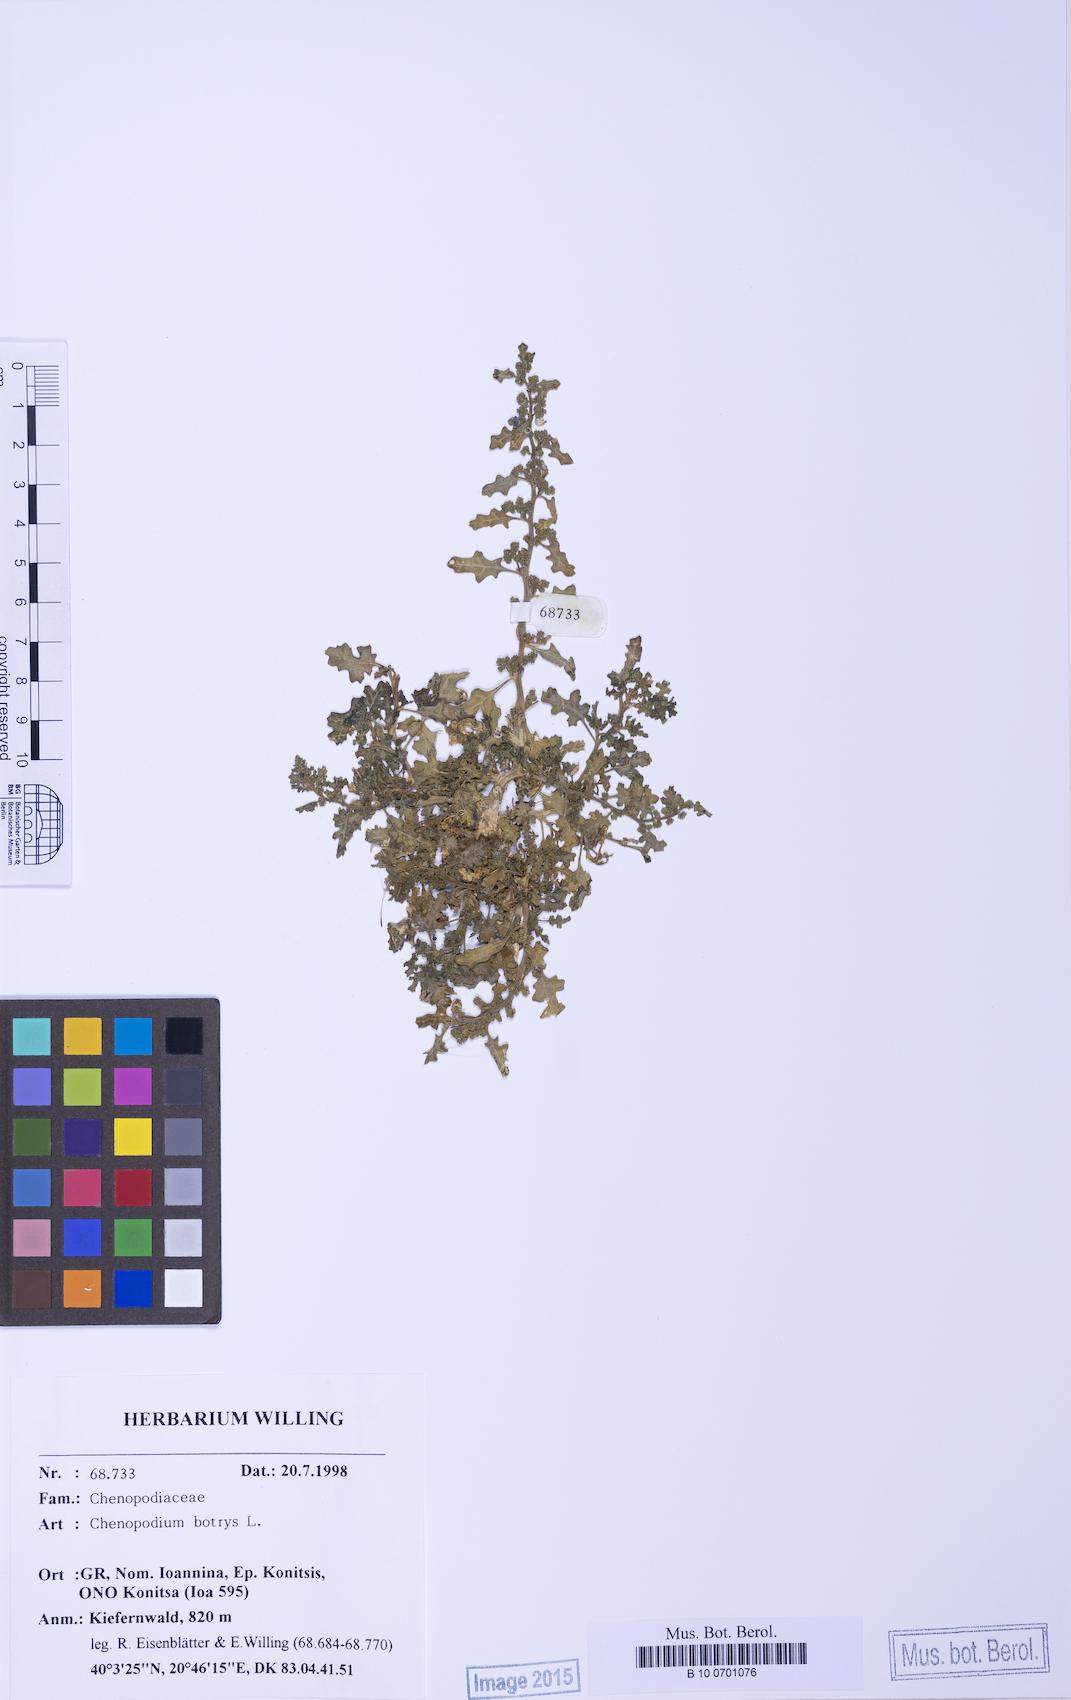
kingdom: Plantae
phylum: Tracheophyta
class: Magnoliopsida
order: Caryophyllales
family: Amaranthaceae
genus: Dysphania
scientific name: Dysphania botrys
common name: Feather-geranium
